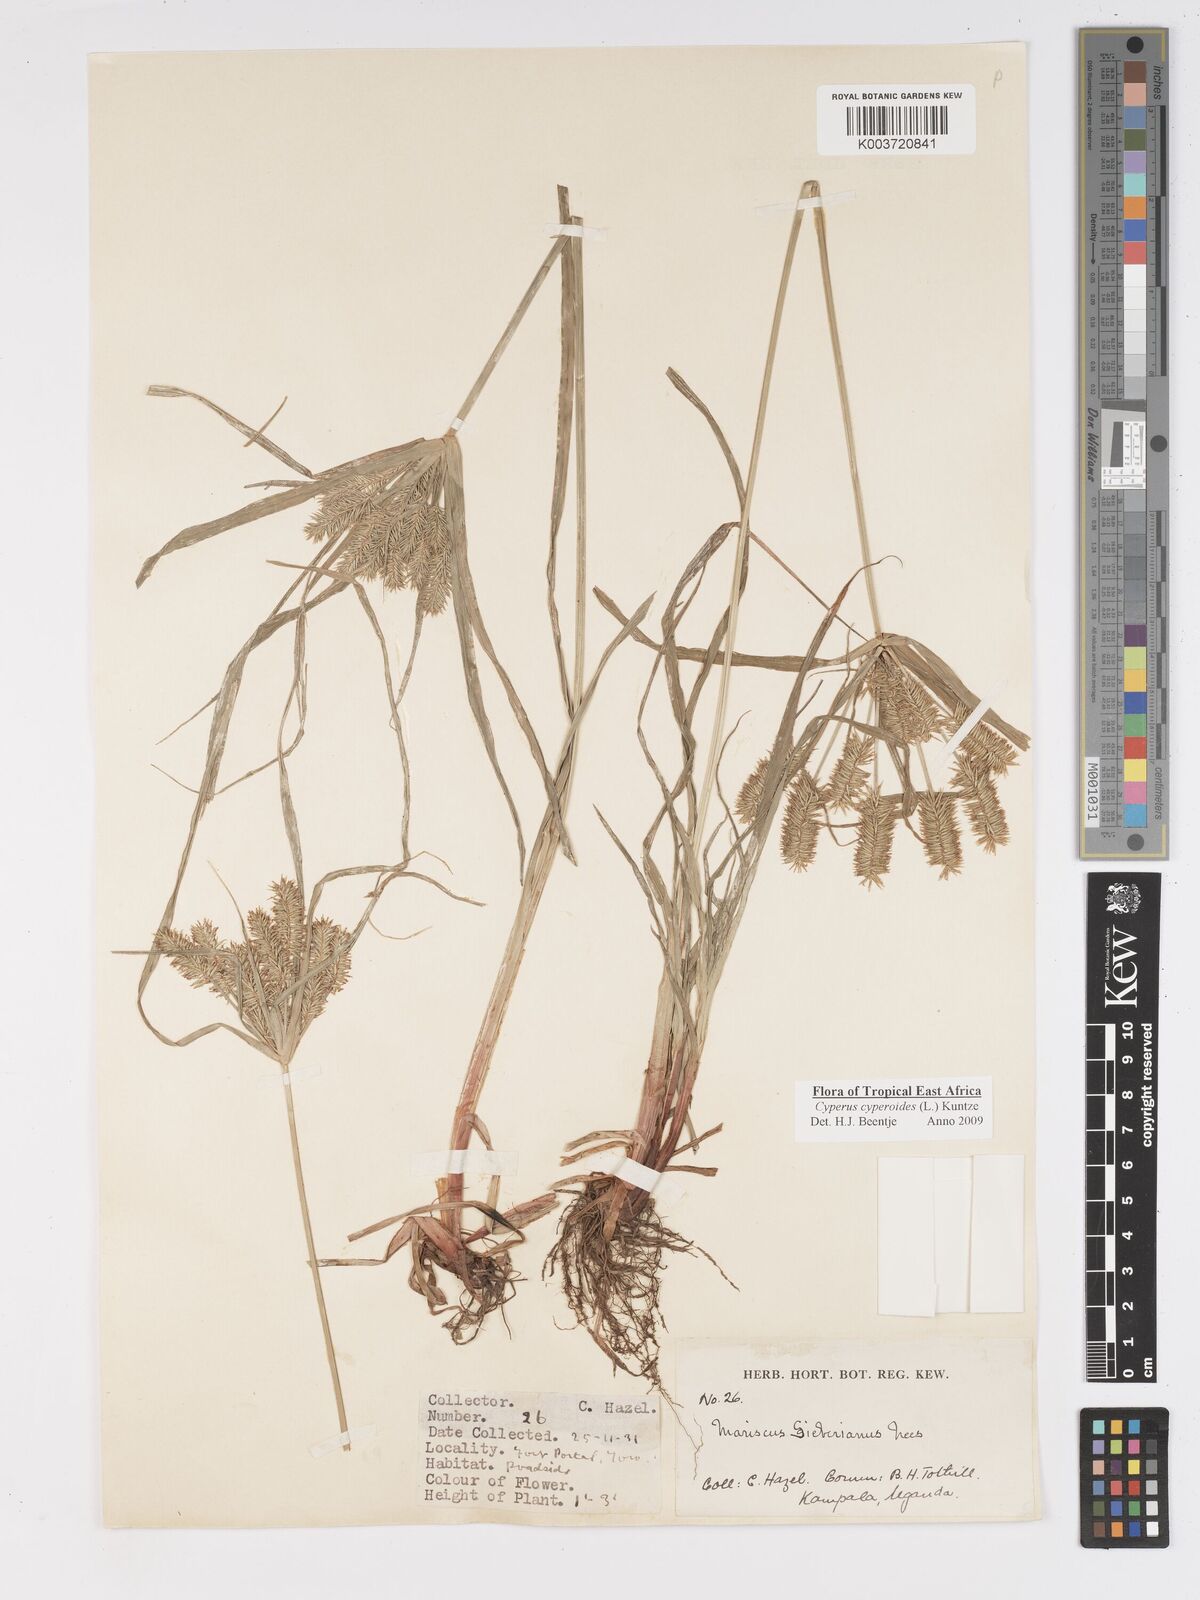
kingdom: Plantae
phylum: Tracheophyta
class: Liliopsida
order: Poales
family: Cyperaceae
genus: Cyperus
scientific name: Cyperus cyperoides
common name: Pacific island flat sedge
